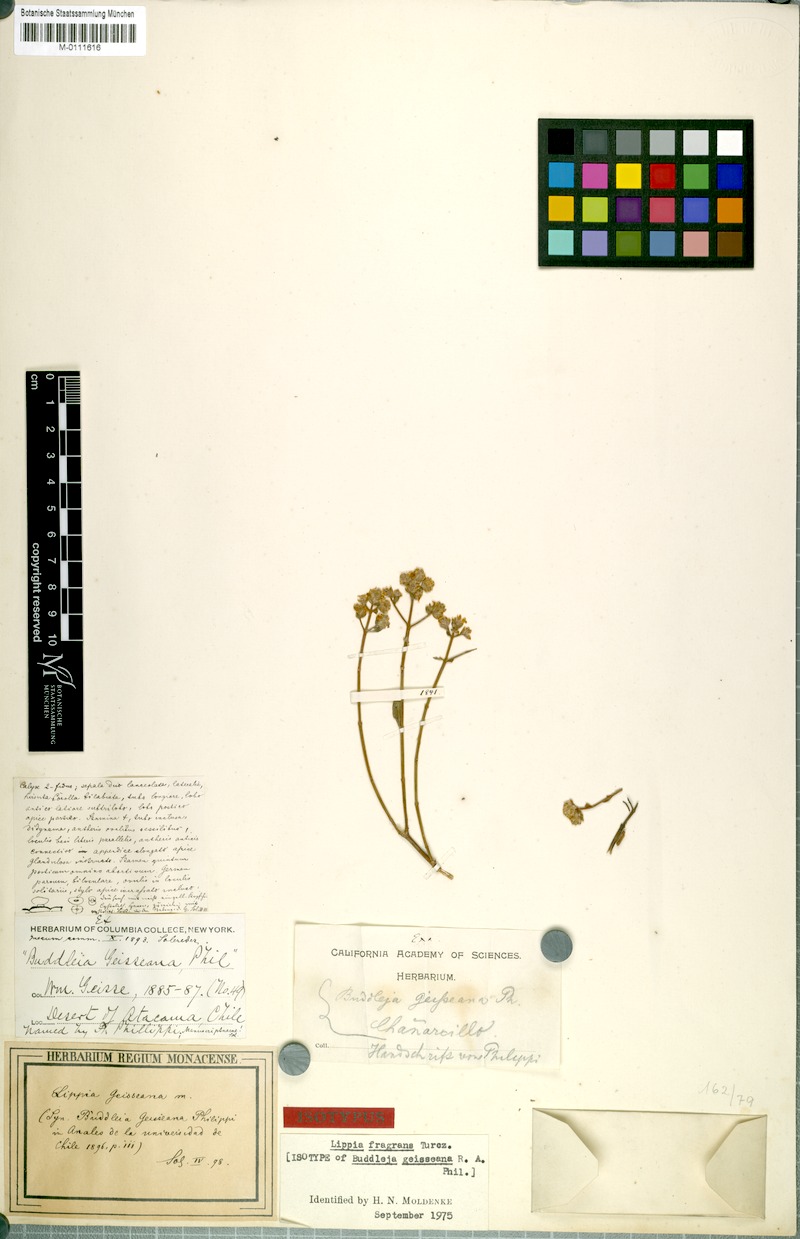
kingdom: Plantae
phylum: Tracheophyta
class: Magnoliopsida
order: Lamiales
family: Verbenaceae
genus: Lippia
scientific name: Lippia fragrans
